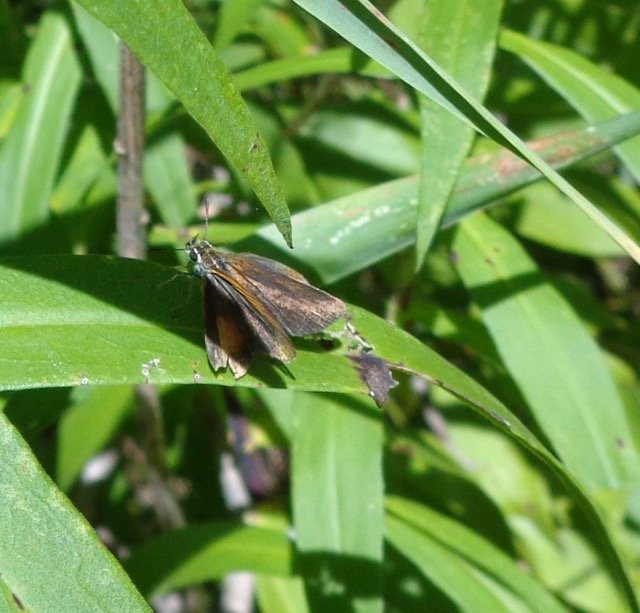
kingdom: Animalia
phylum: Arthropoda
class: Insecta
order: Lepidoptera
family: Hesperiidae
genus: Ancyloxypha
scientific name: Ancyloxypha numitor
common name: Least Skipper
